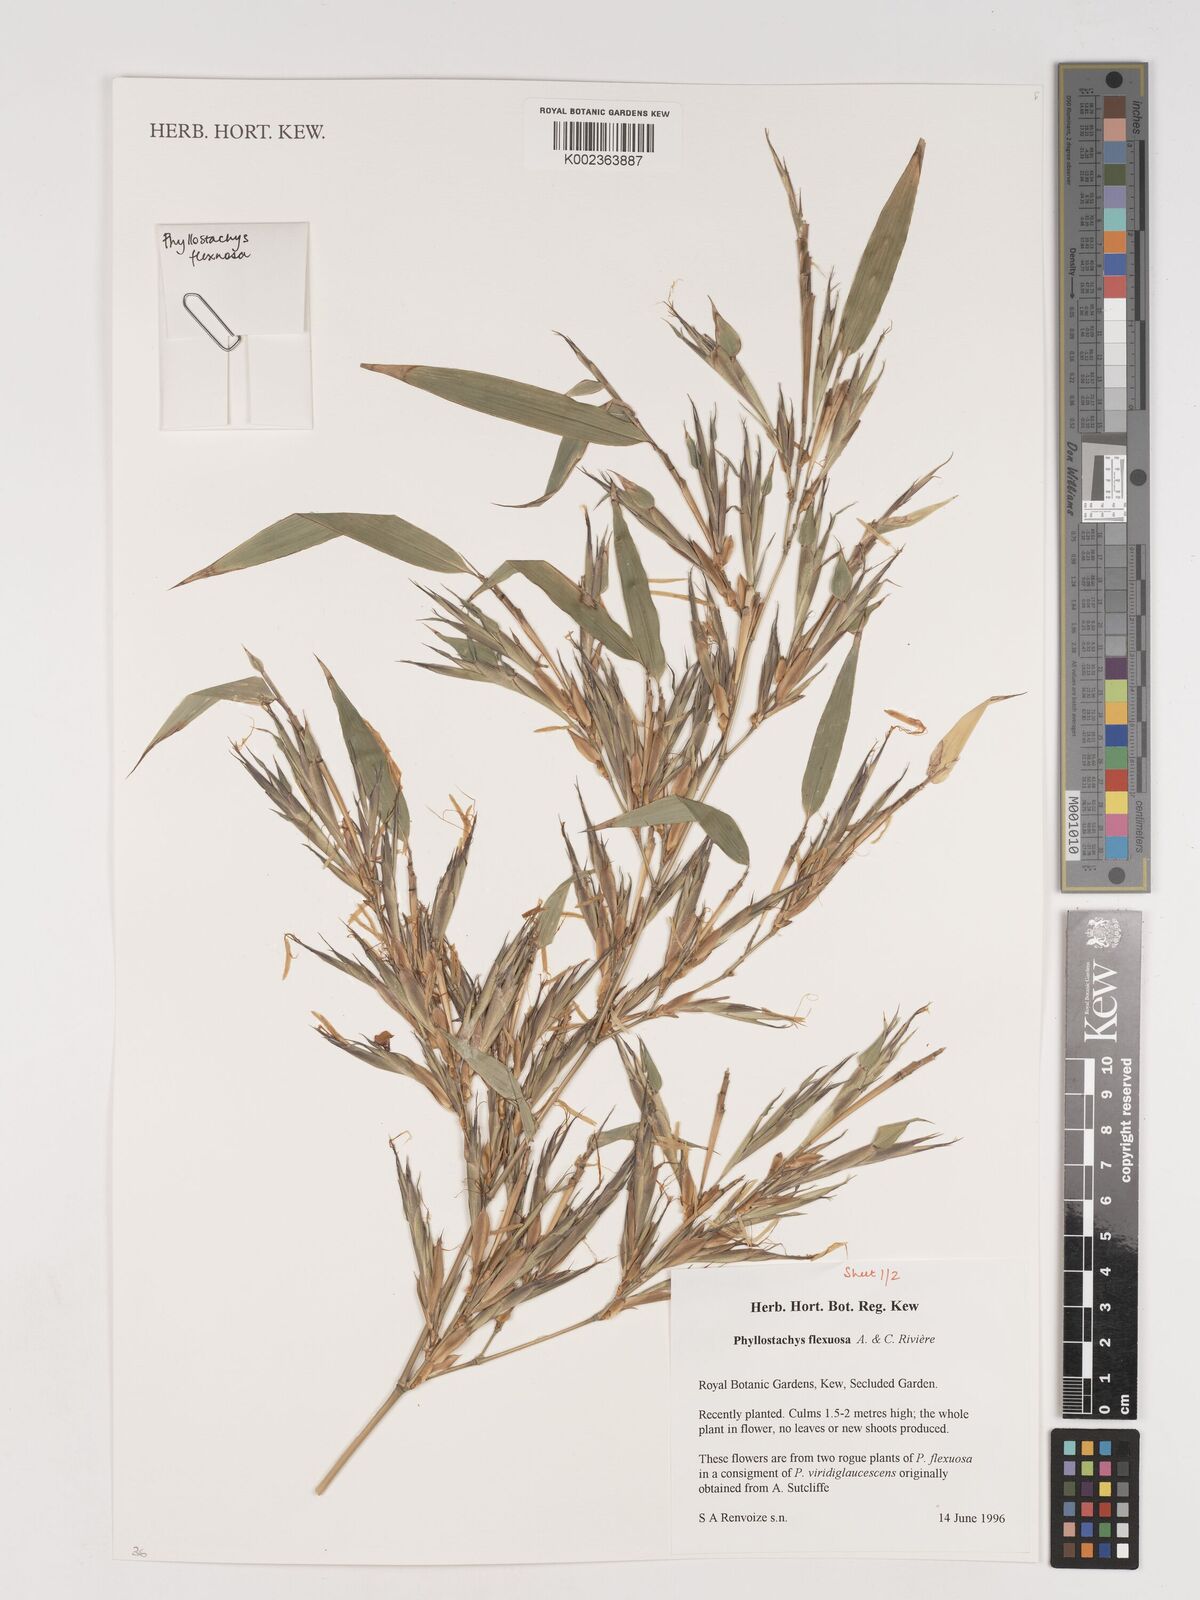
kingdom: Plantae
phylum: Tracheophyta
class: Liliopsida
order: Poales
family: Poaceae
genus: Phyllostachys
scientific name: Phyllostachys flexuosa
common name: Drooping timber bamboo
